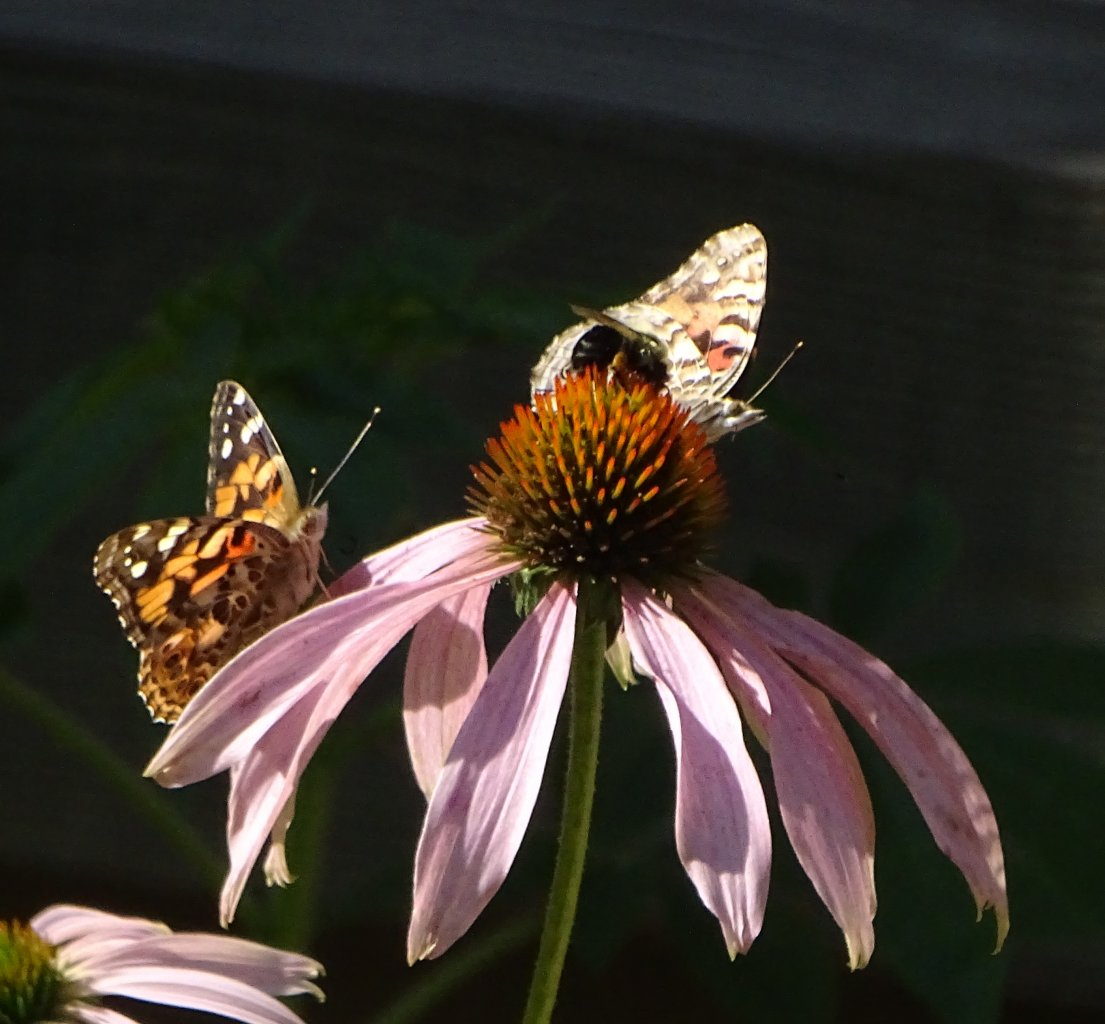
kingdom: Animalia
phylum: Arthropoda
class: Insecta
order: Lepidoptera
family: Nymphalidae
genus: Vanessa
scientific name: Vanessa cardui
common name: Painted Lady
